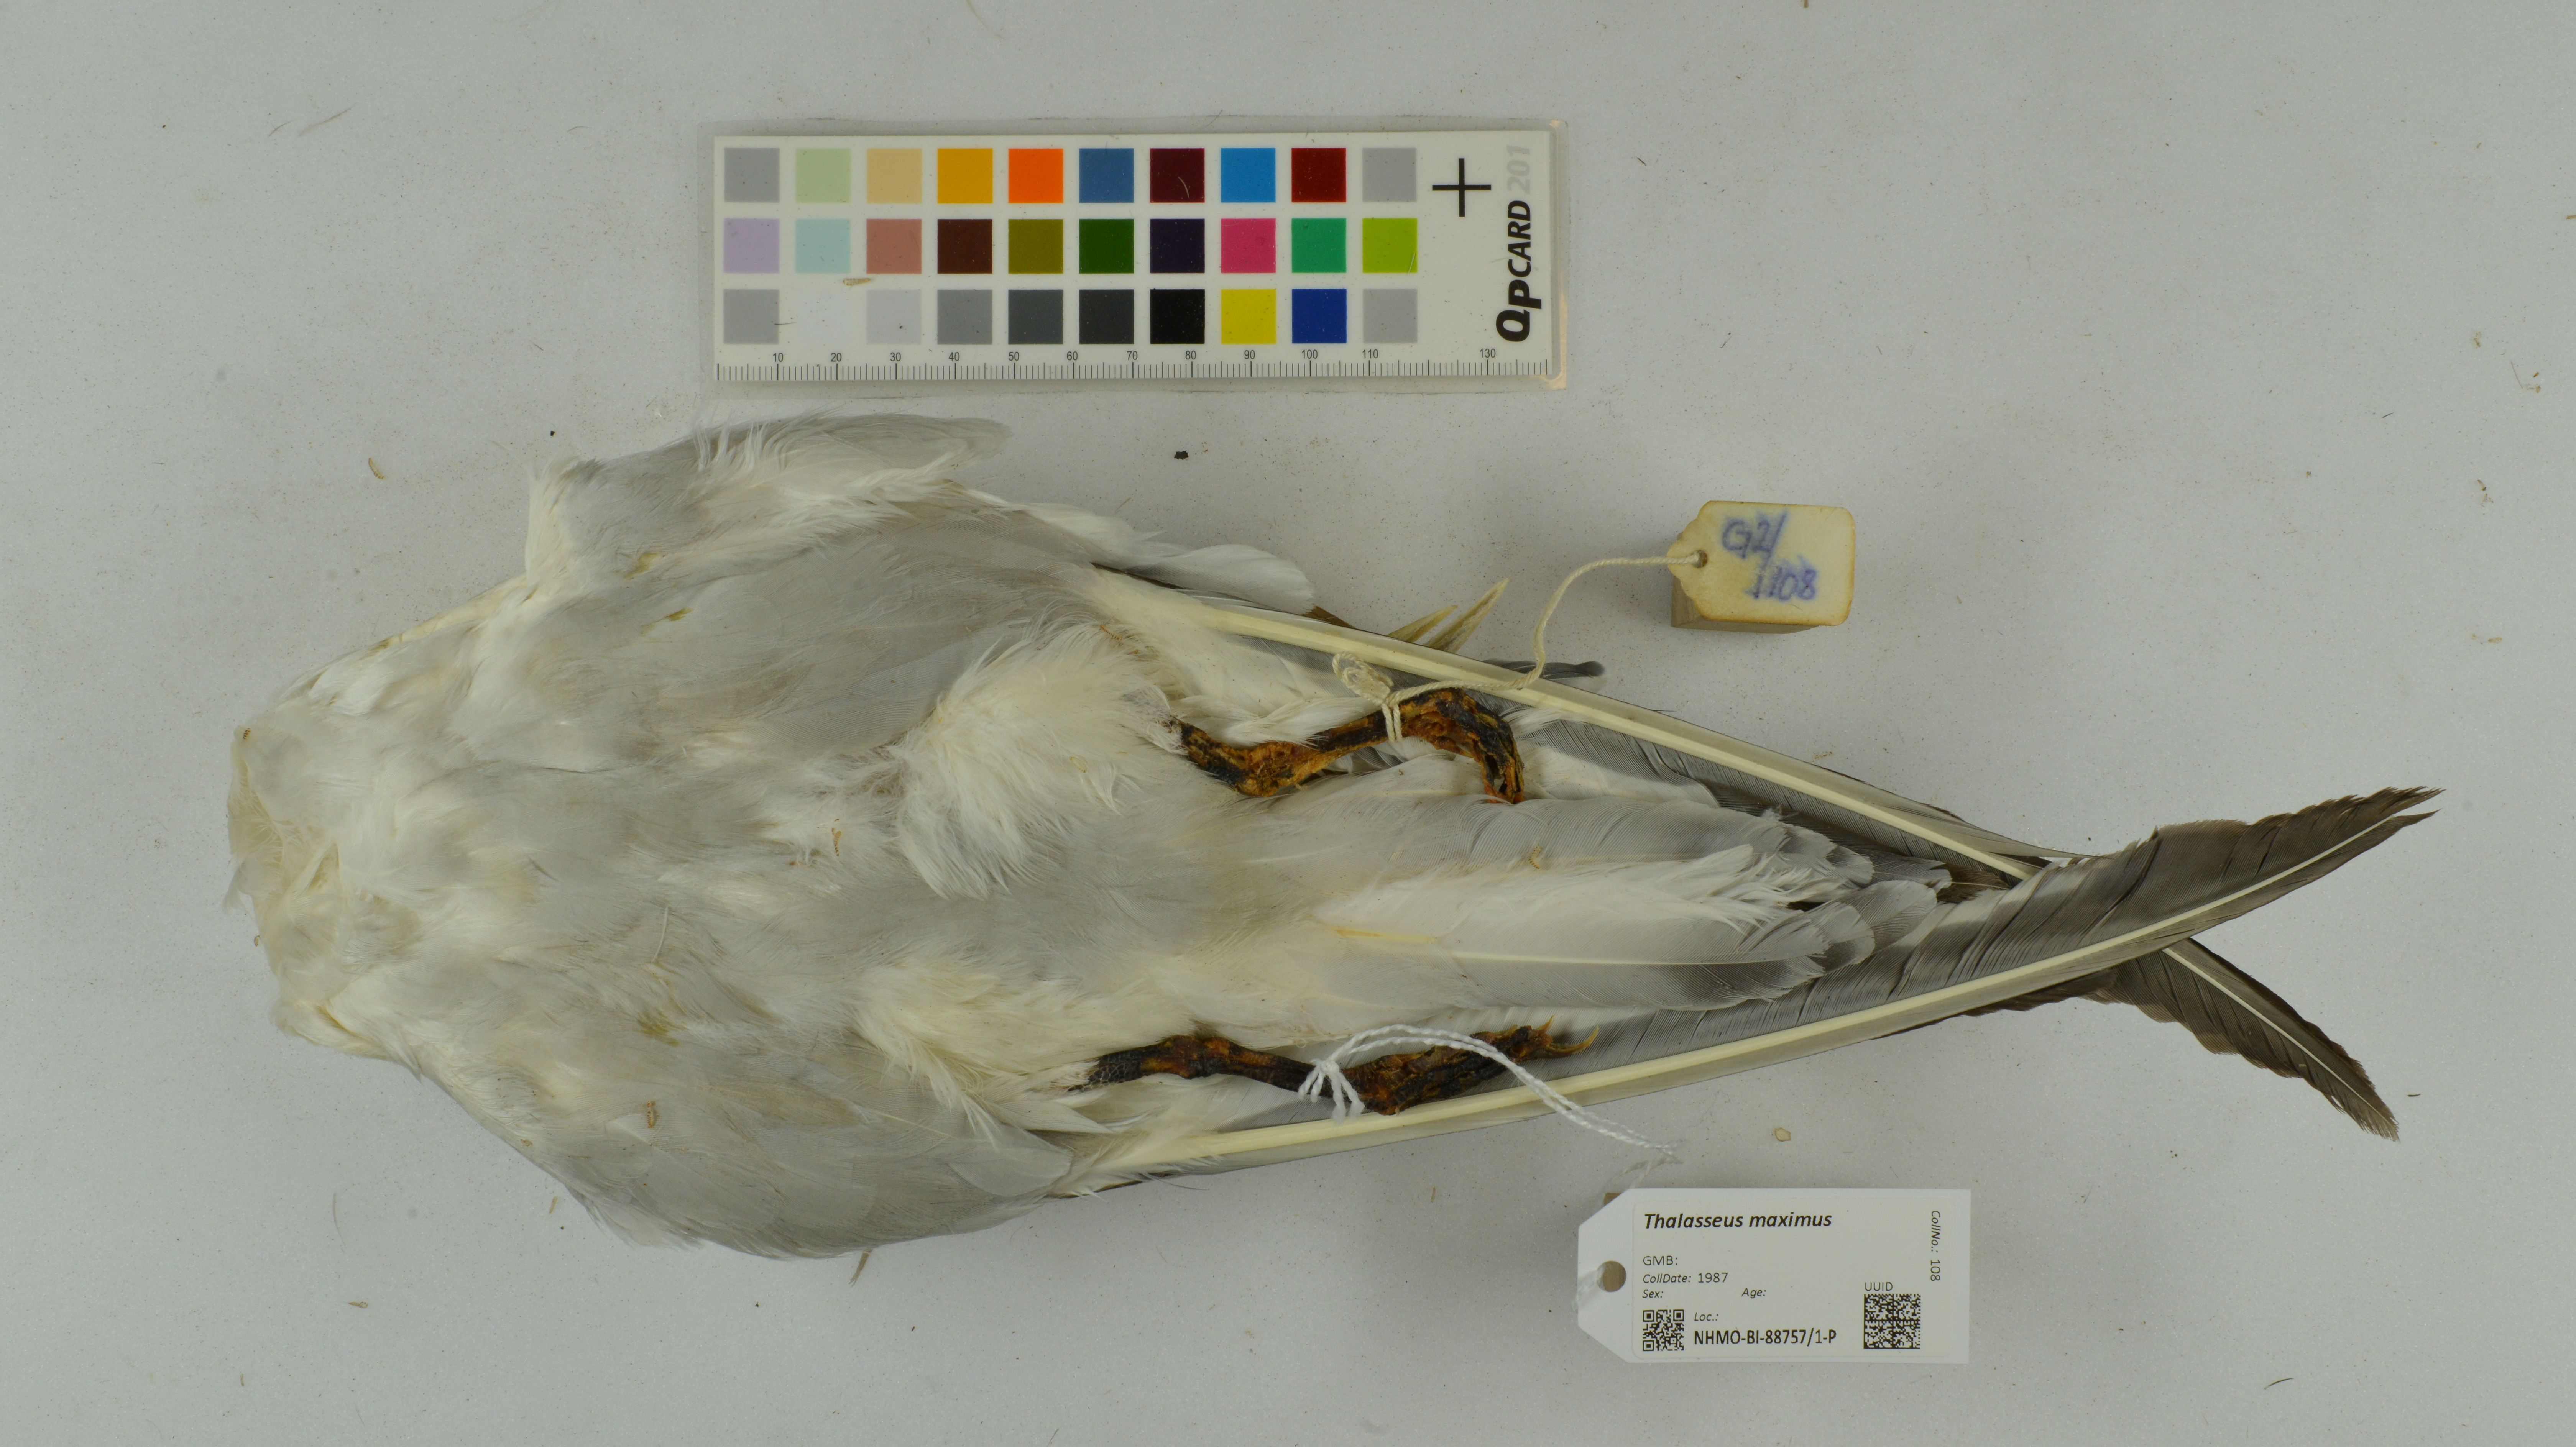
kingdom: Animalia
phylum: Chordata
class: Aves
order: Charadriiformes
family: Laridae
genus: Thalasseus
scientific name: Thalasseus maximus
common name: Royal tern
